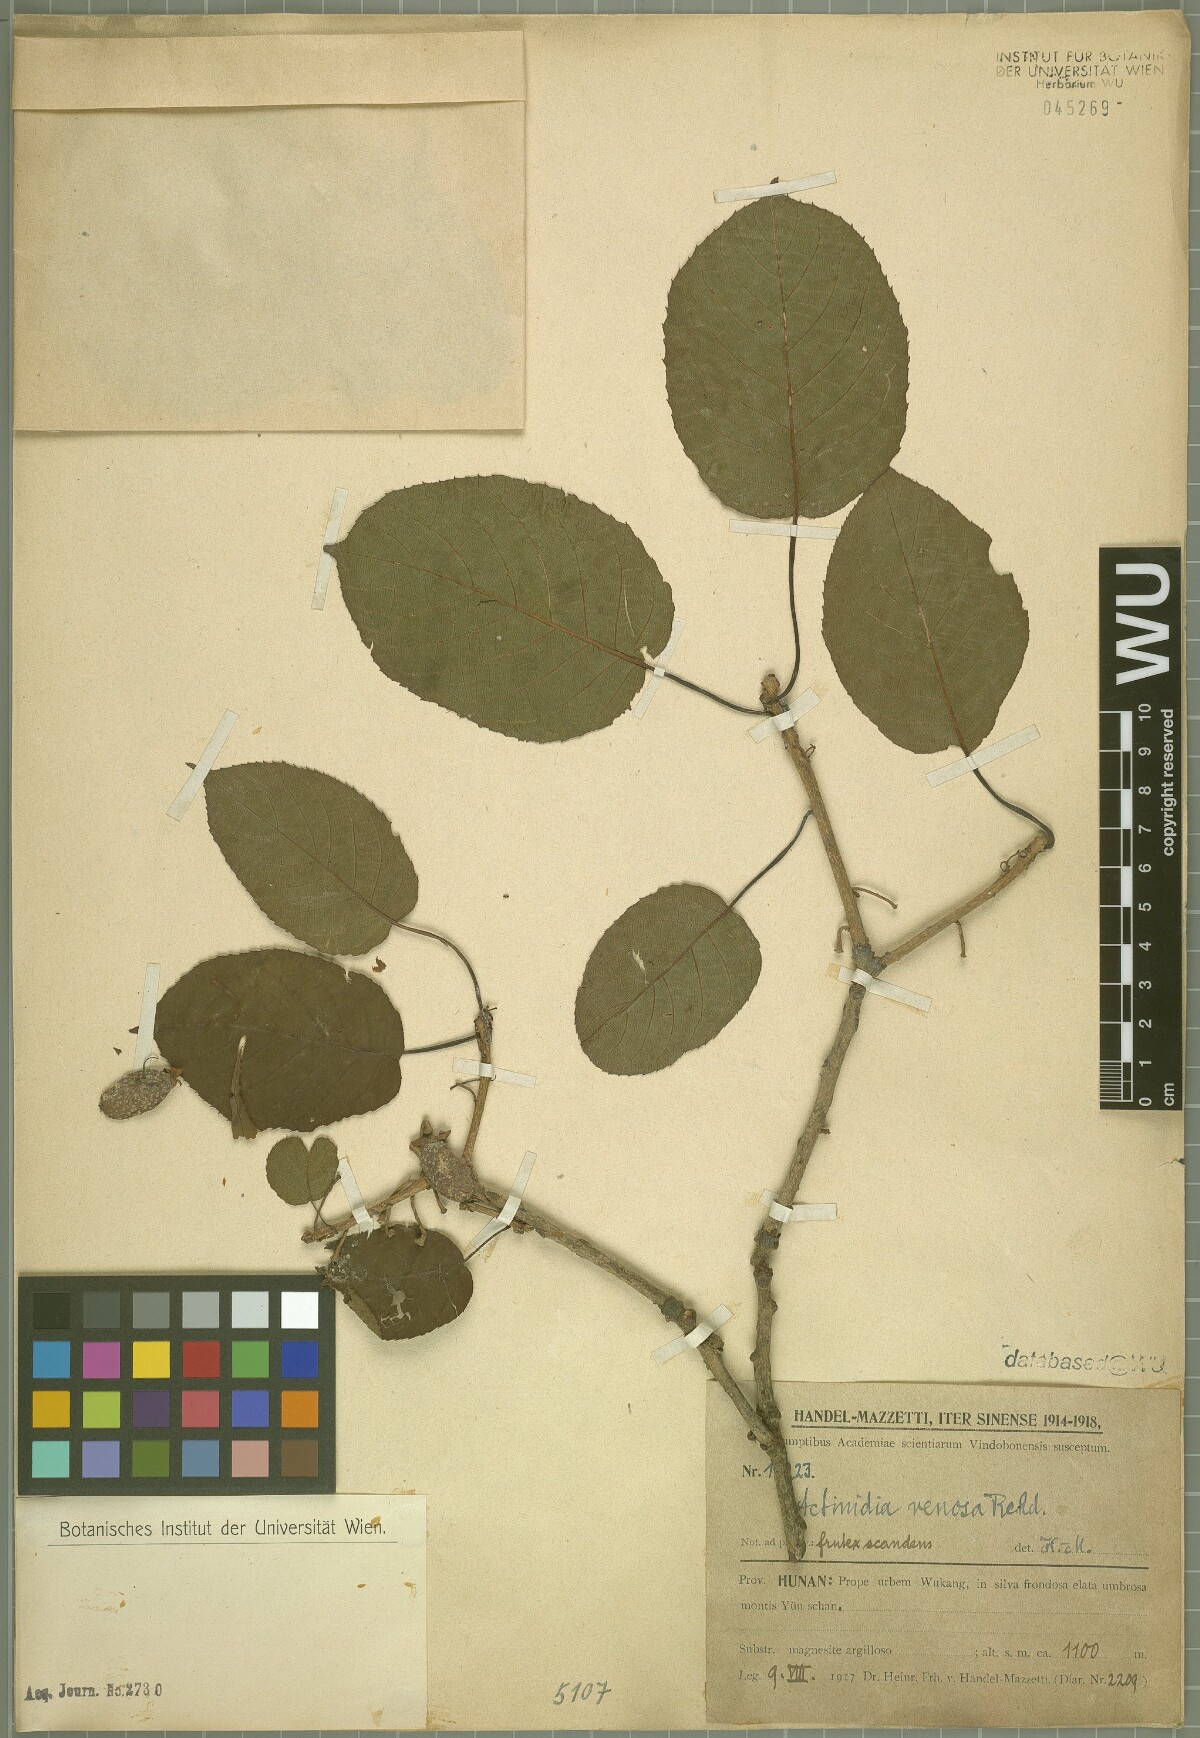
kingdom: Plantae
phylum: Tracheophyta
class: Magnoliopsida
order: Ericales
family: Actinidiaceae
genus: Actinidia
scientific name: Actinidia venosa
